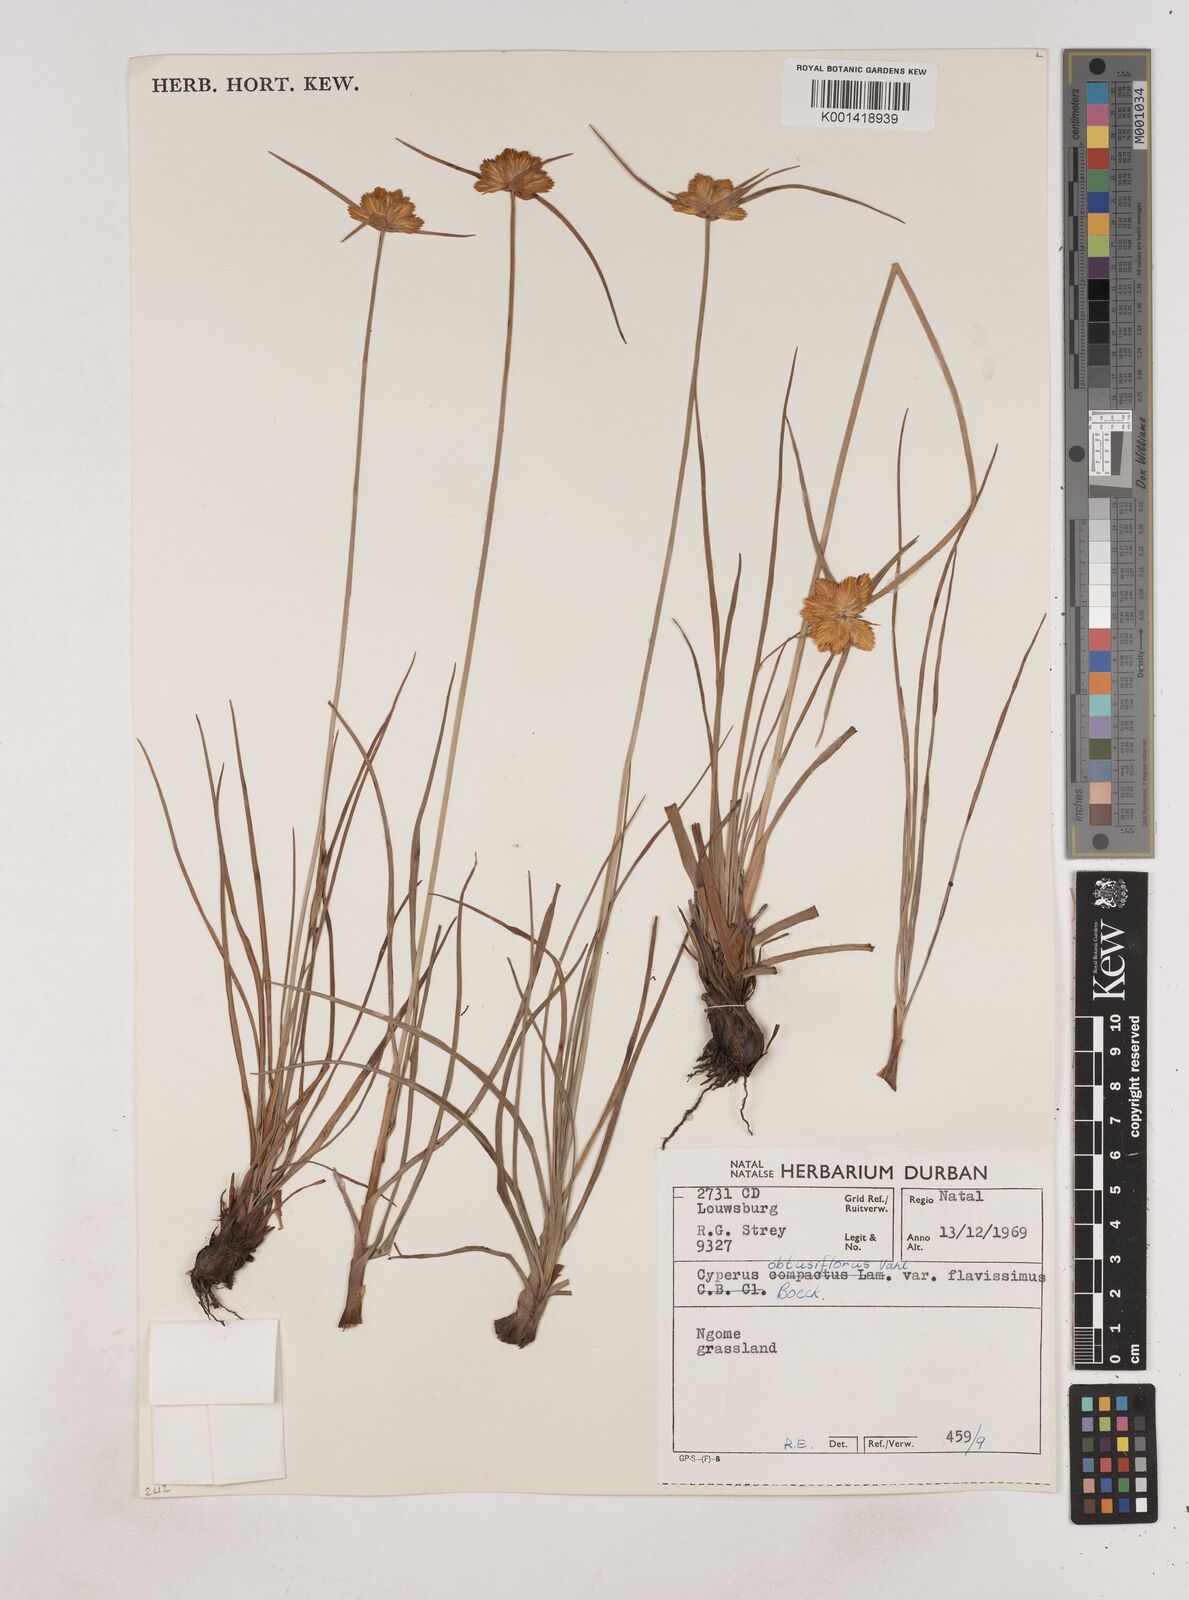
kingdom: Plantae
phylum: Tracheophyta
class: Liliopsida
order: Poales
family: Cyperaceae
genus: Cyperus
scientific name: Cyperus sphaerocephalus
